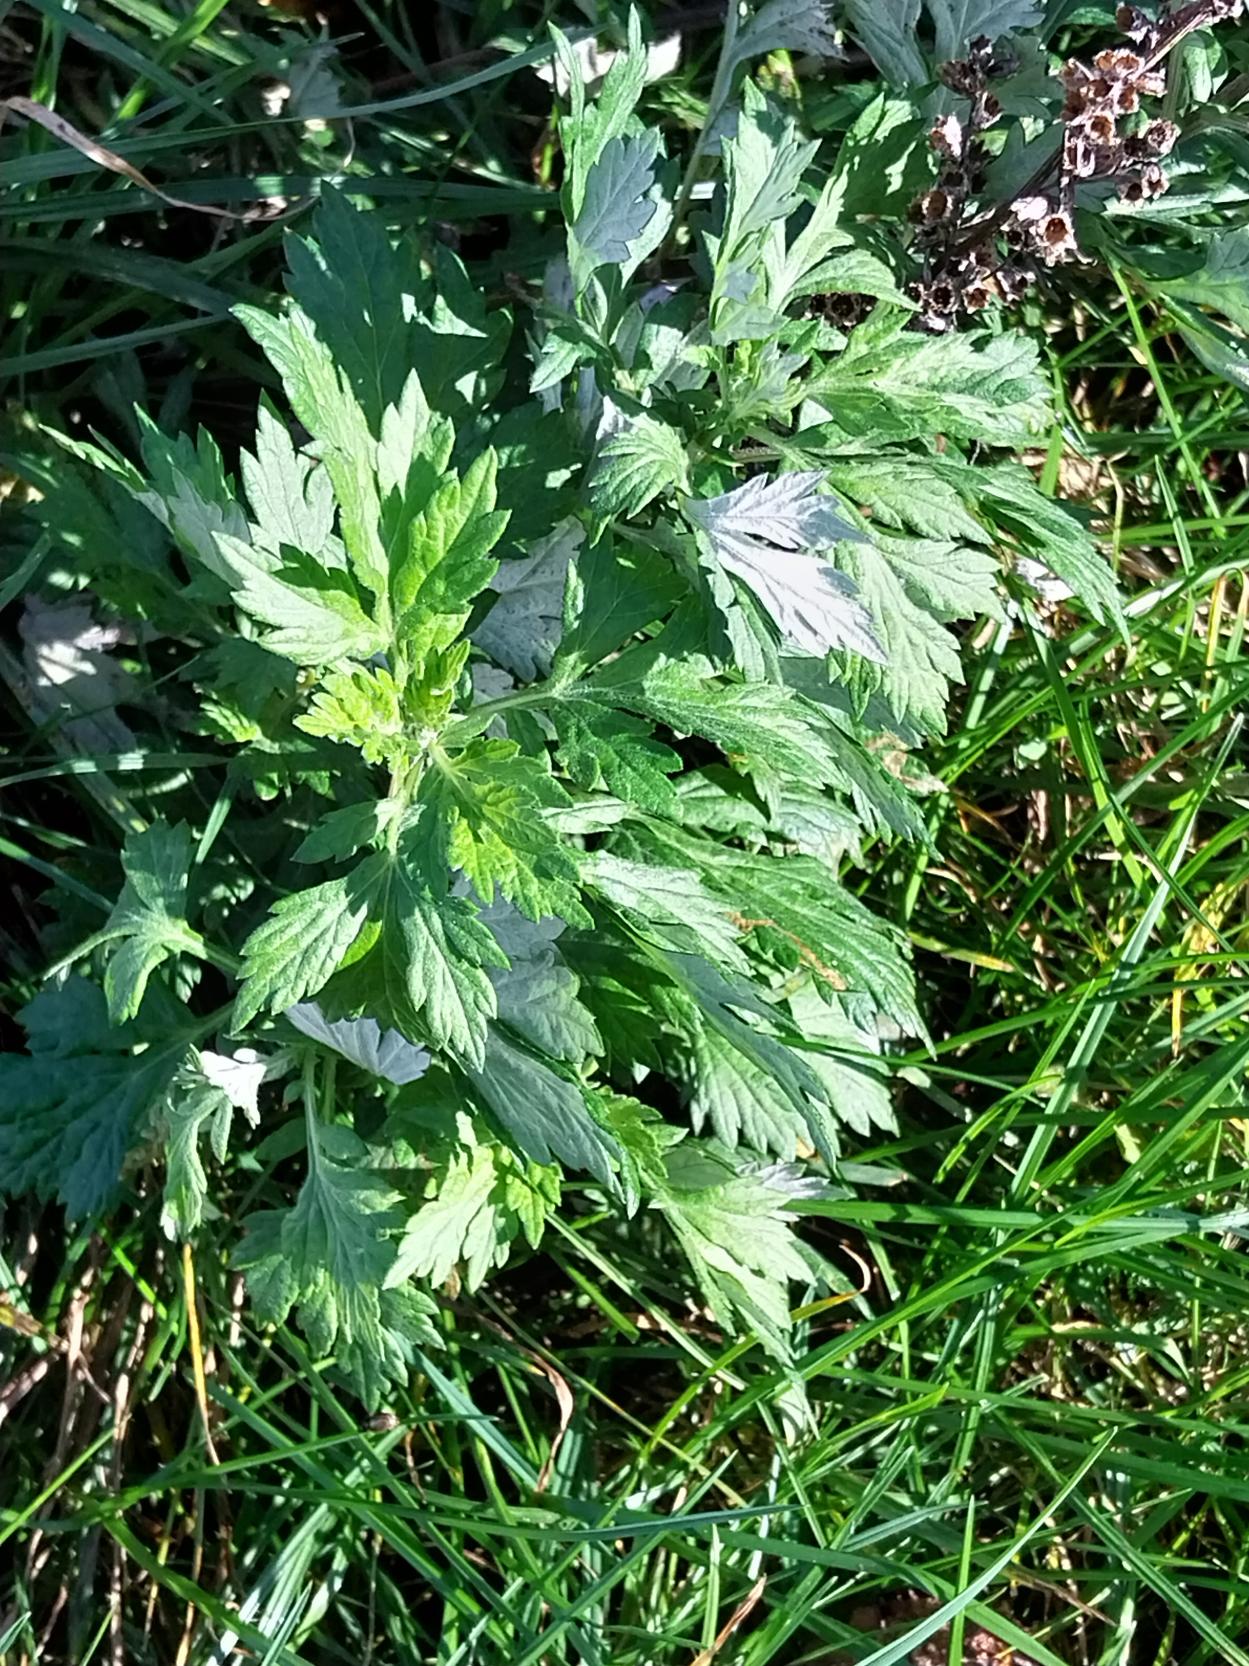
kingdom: Plantae
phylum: Tracheophyta
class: Magnoliopsida
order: Asterales
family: Asteraceae
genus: Artemisia
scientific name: Artemisia vulgaris
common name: Grå-bynke
